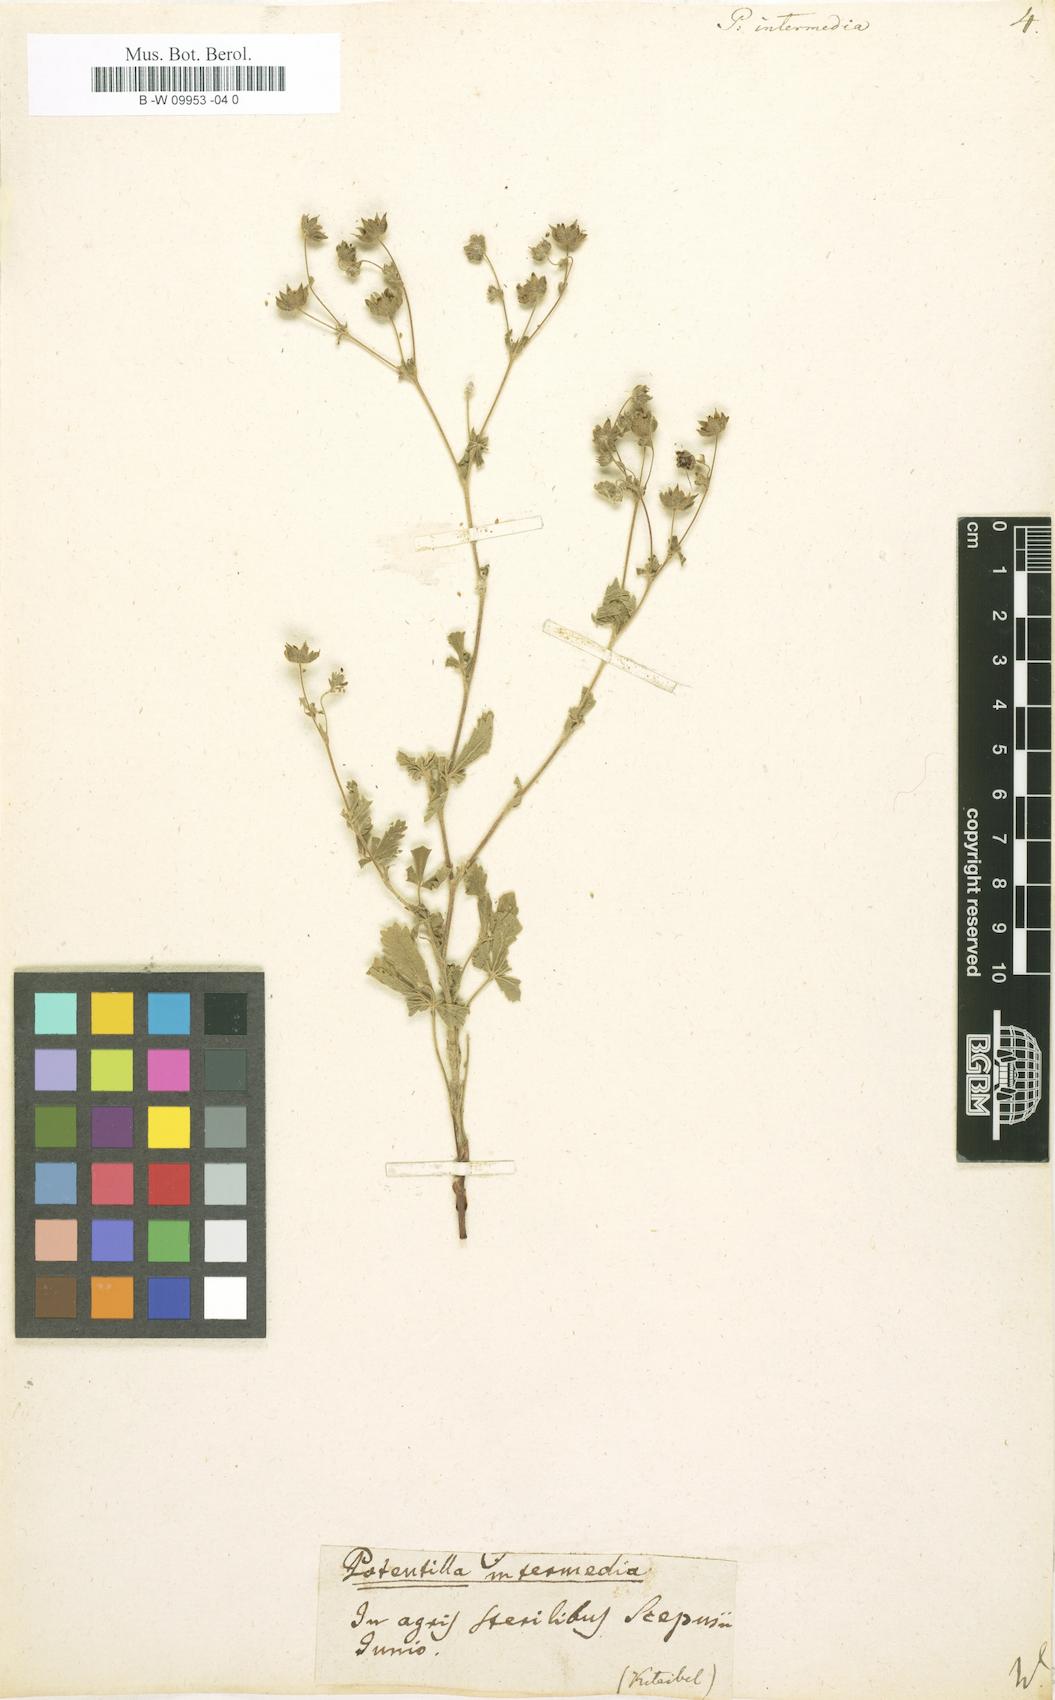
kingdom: Plantae
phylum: Tracheophyta
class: Magnoliopsida
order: Rosales
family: Rosaceae
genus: Potentilla
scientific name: Potentilla intermedia
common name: Downy cinquefoil
